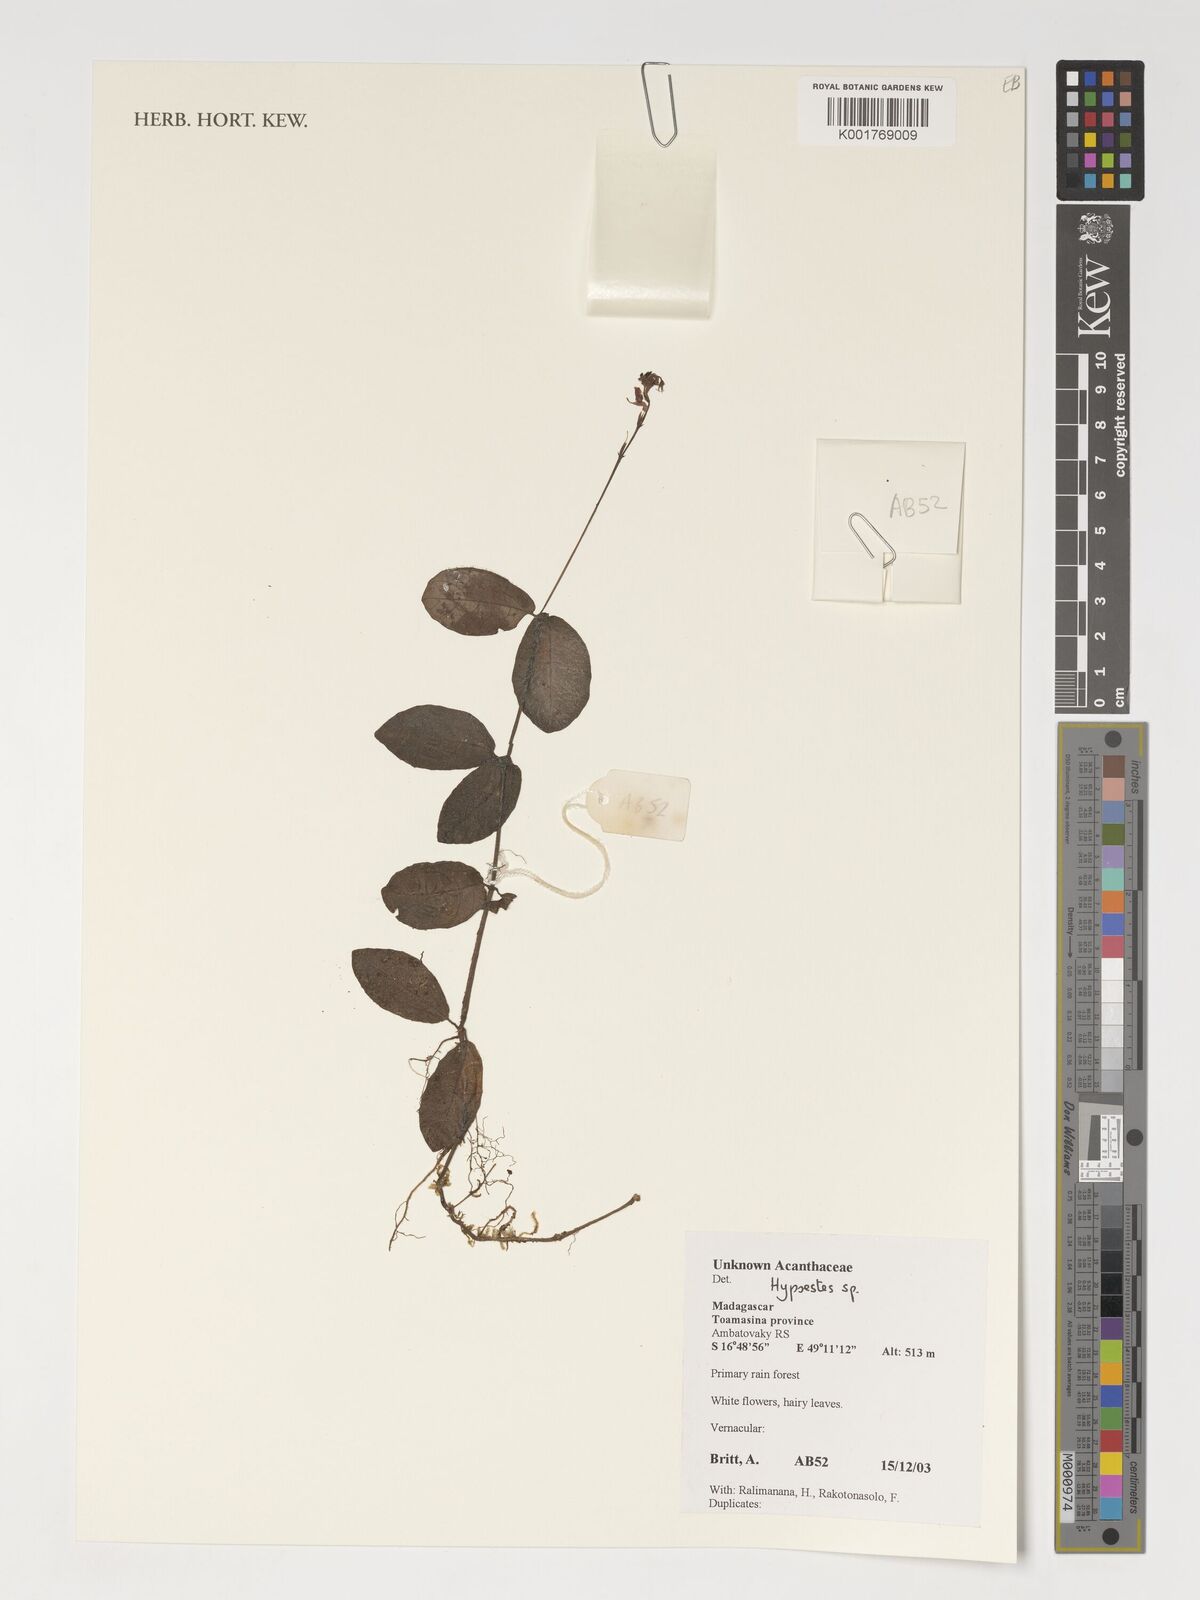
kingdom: Plantae
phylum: Tracheophyta
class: Magnoliopsida
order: Lamiales
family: Acanthaceae
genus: Hypoestes
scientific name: Hypoestes
